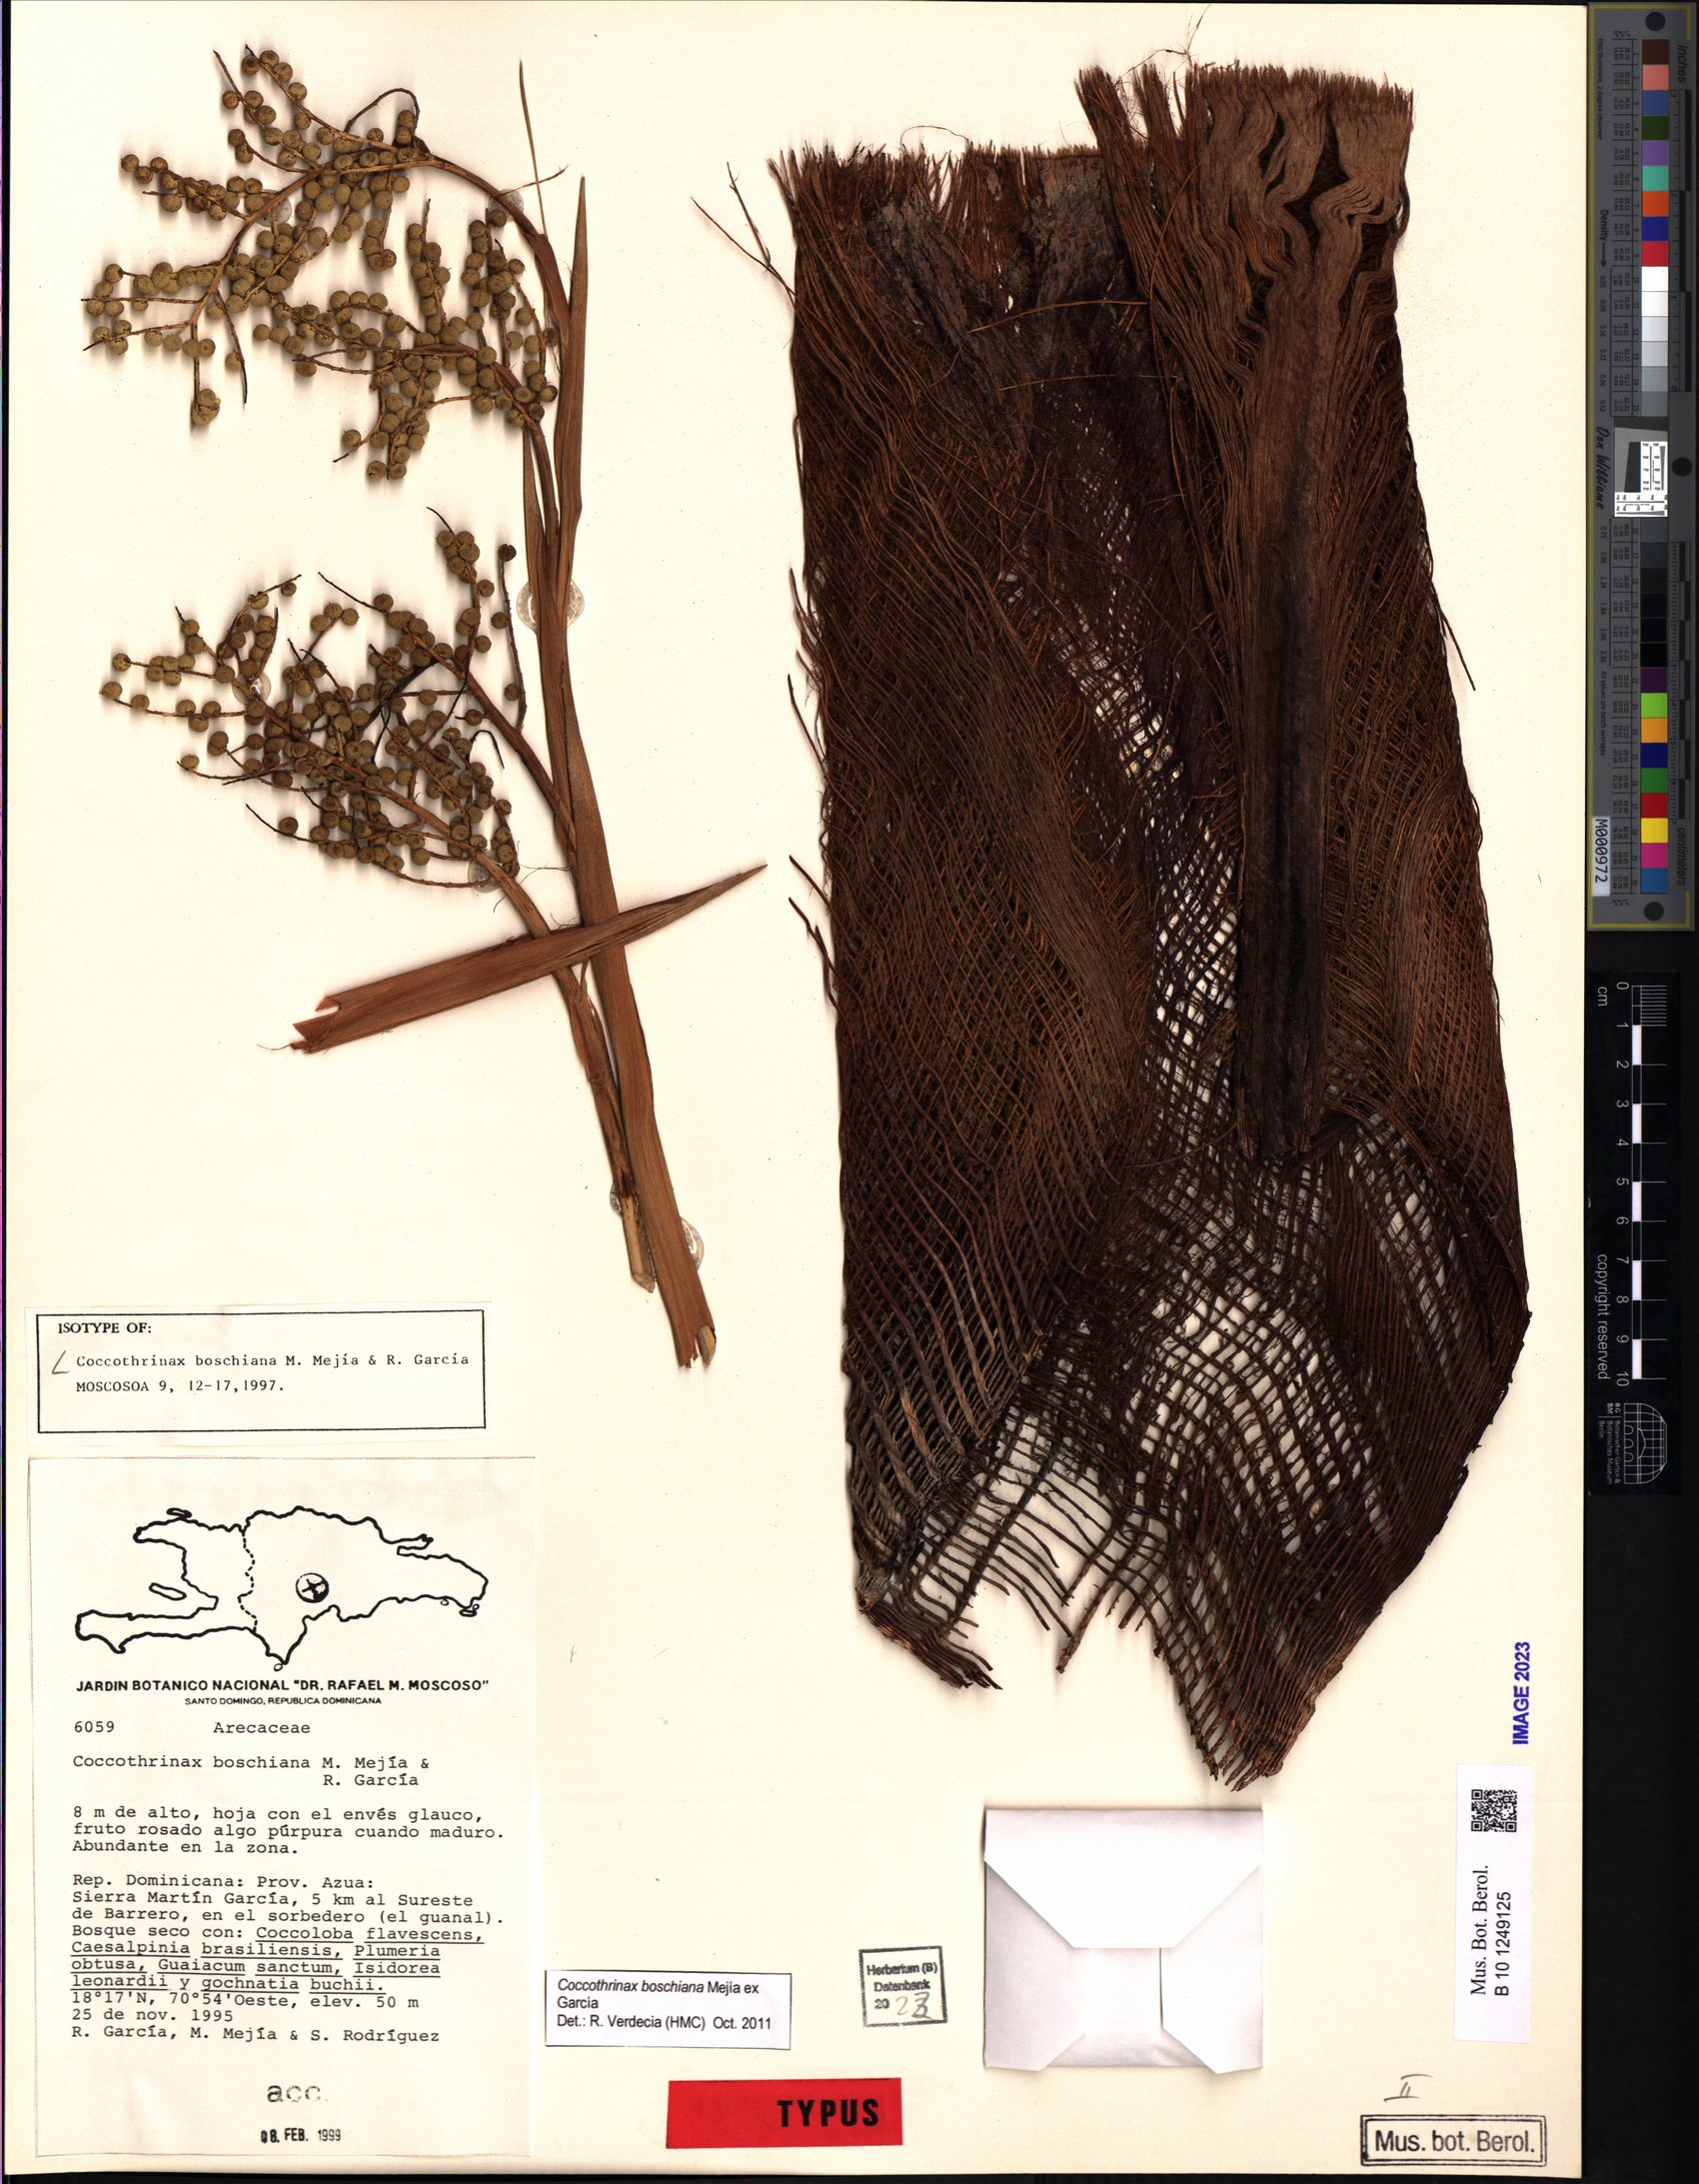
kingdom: Plantae
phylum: Tracheophyta
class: Liliopsida
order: Arecales
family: Arecaceae
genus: Coccothrinax
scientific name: Coccothrinax boschiana
